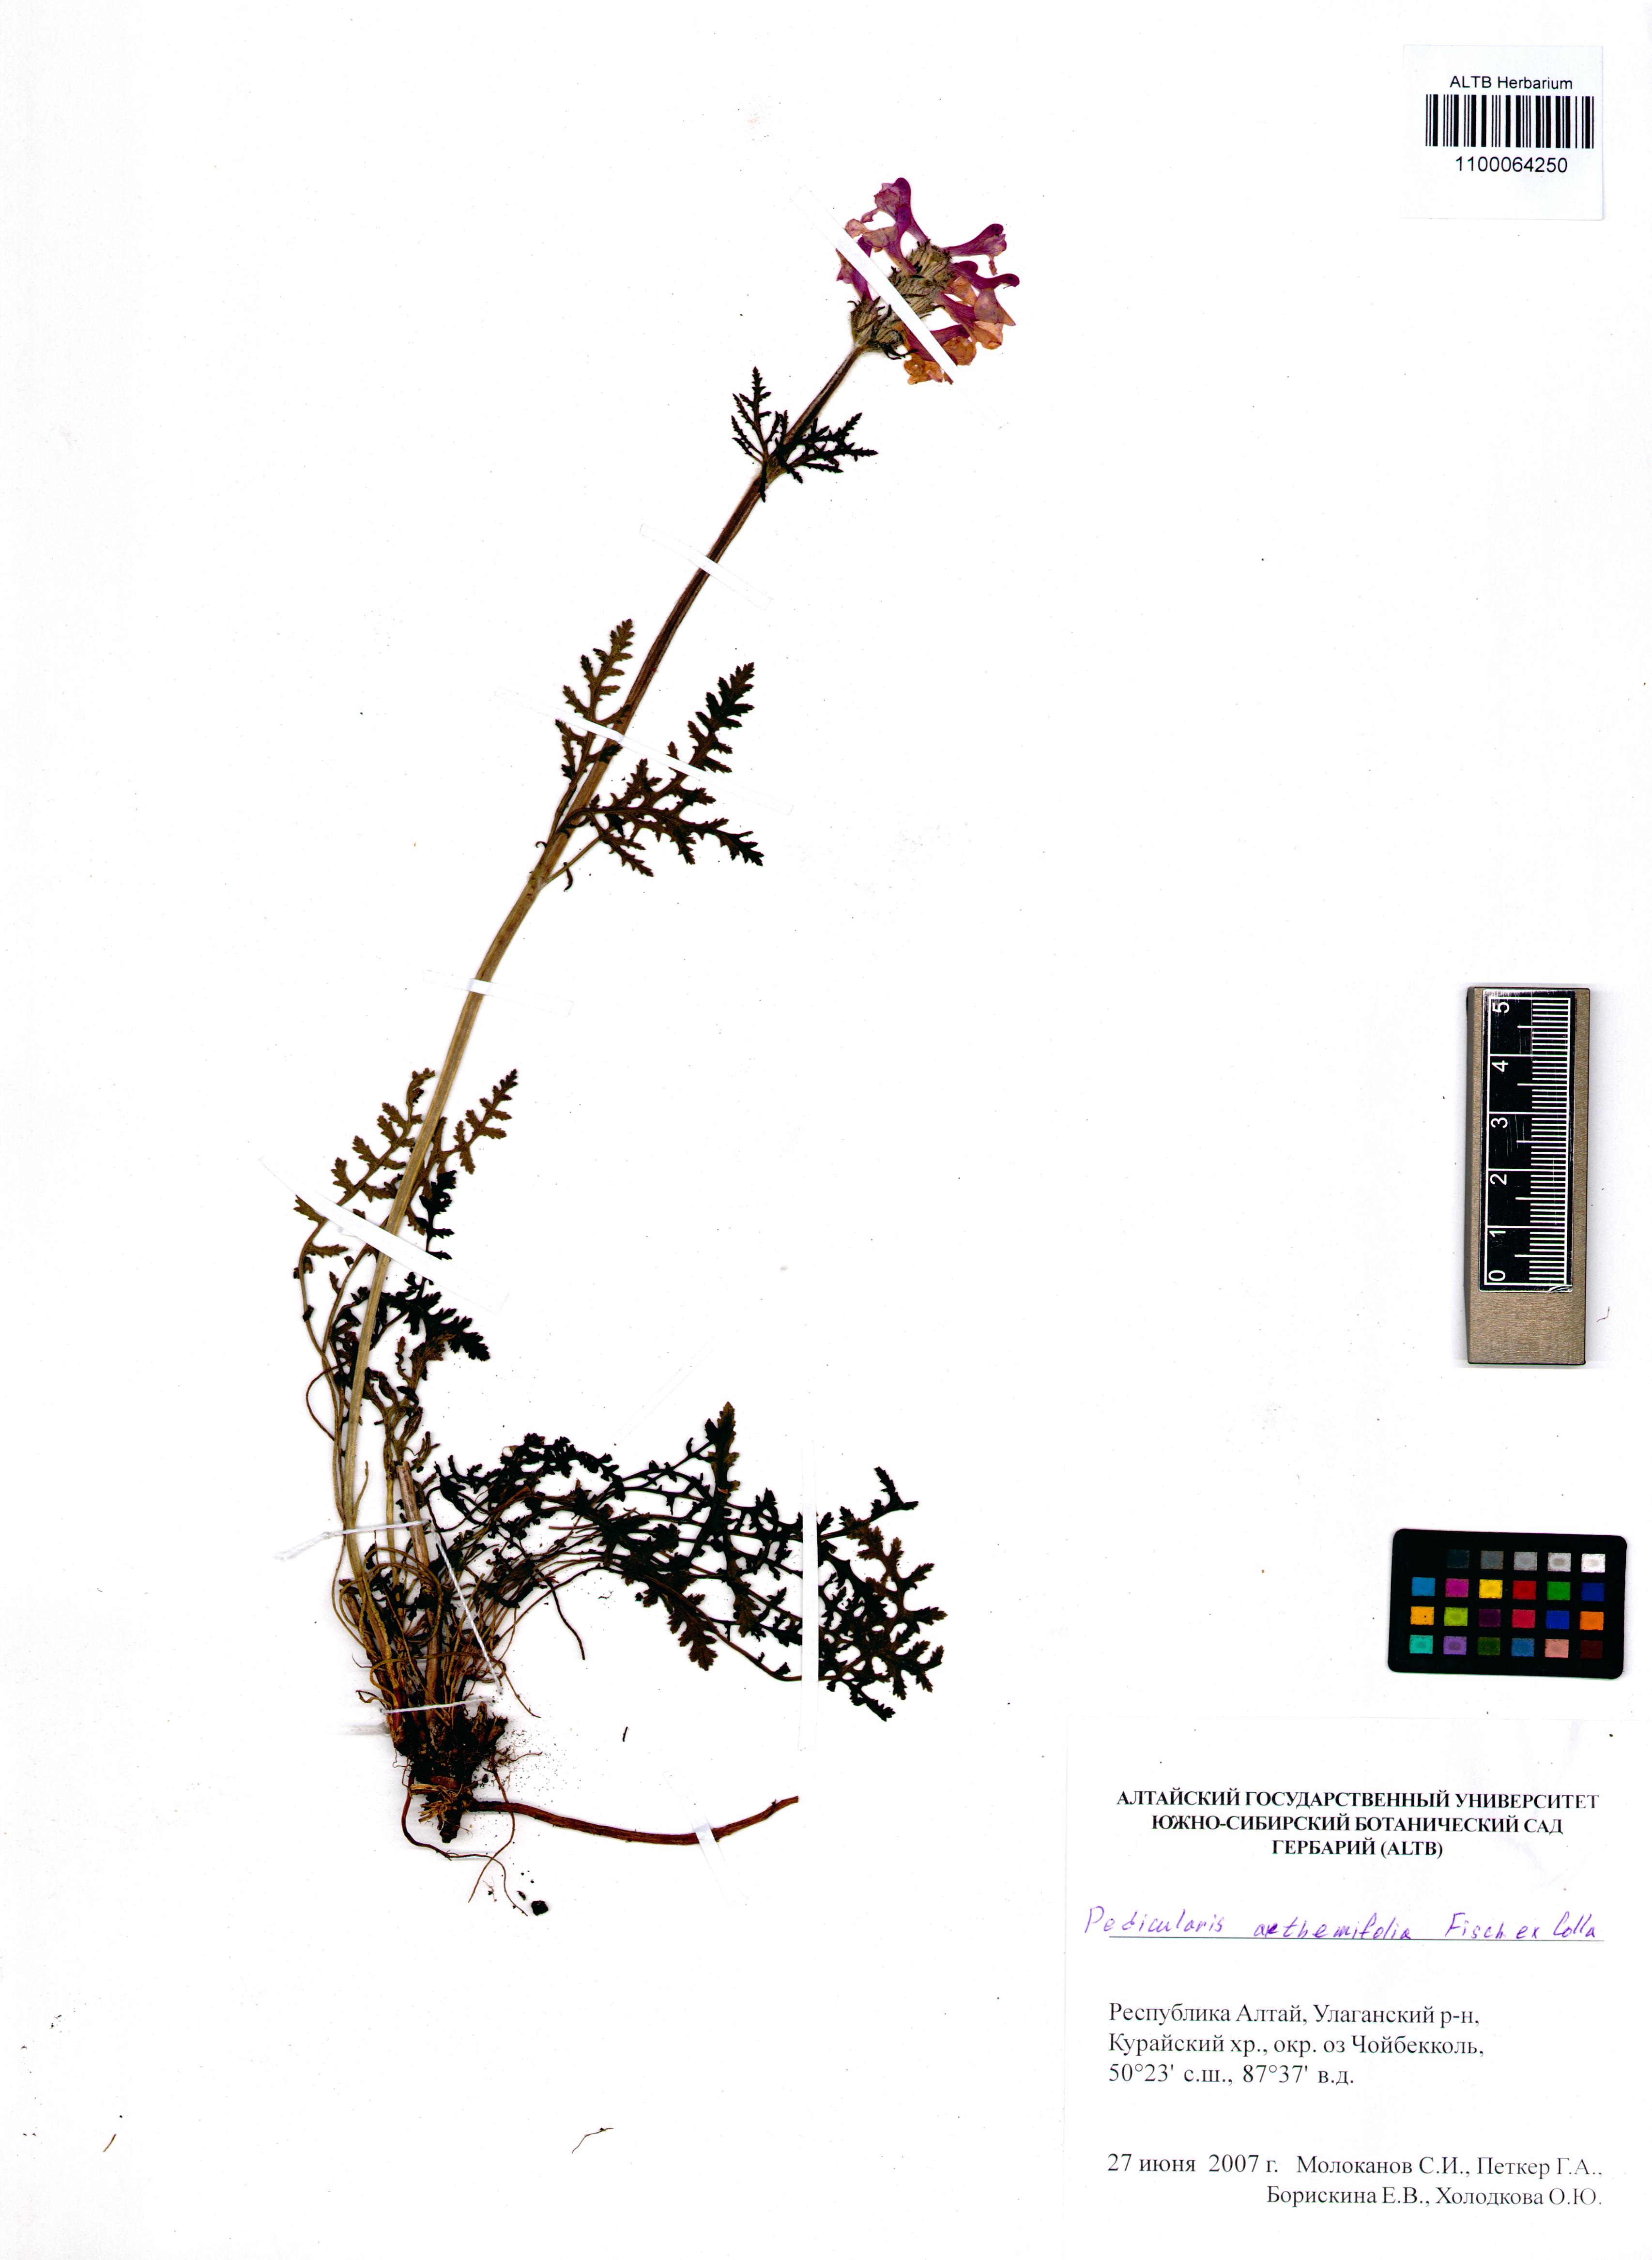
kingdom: Plantae
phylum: Tracheophyta
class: Magnoliopsida
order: Lamiales
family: Orobanchaceae
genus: Pedicularis
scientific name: Pedicularis anthemifolia
